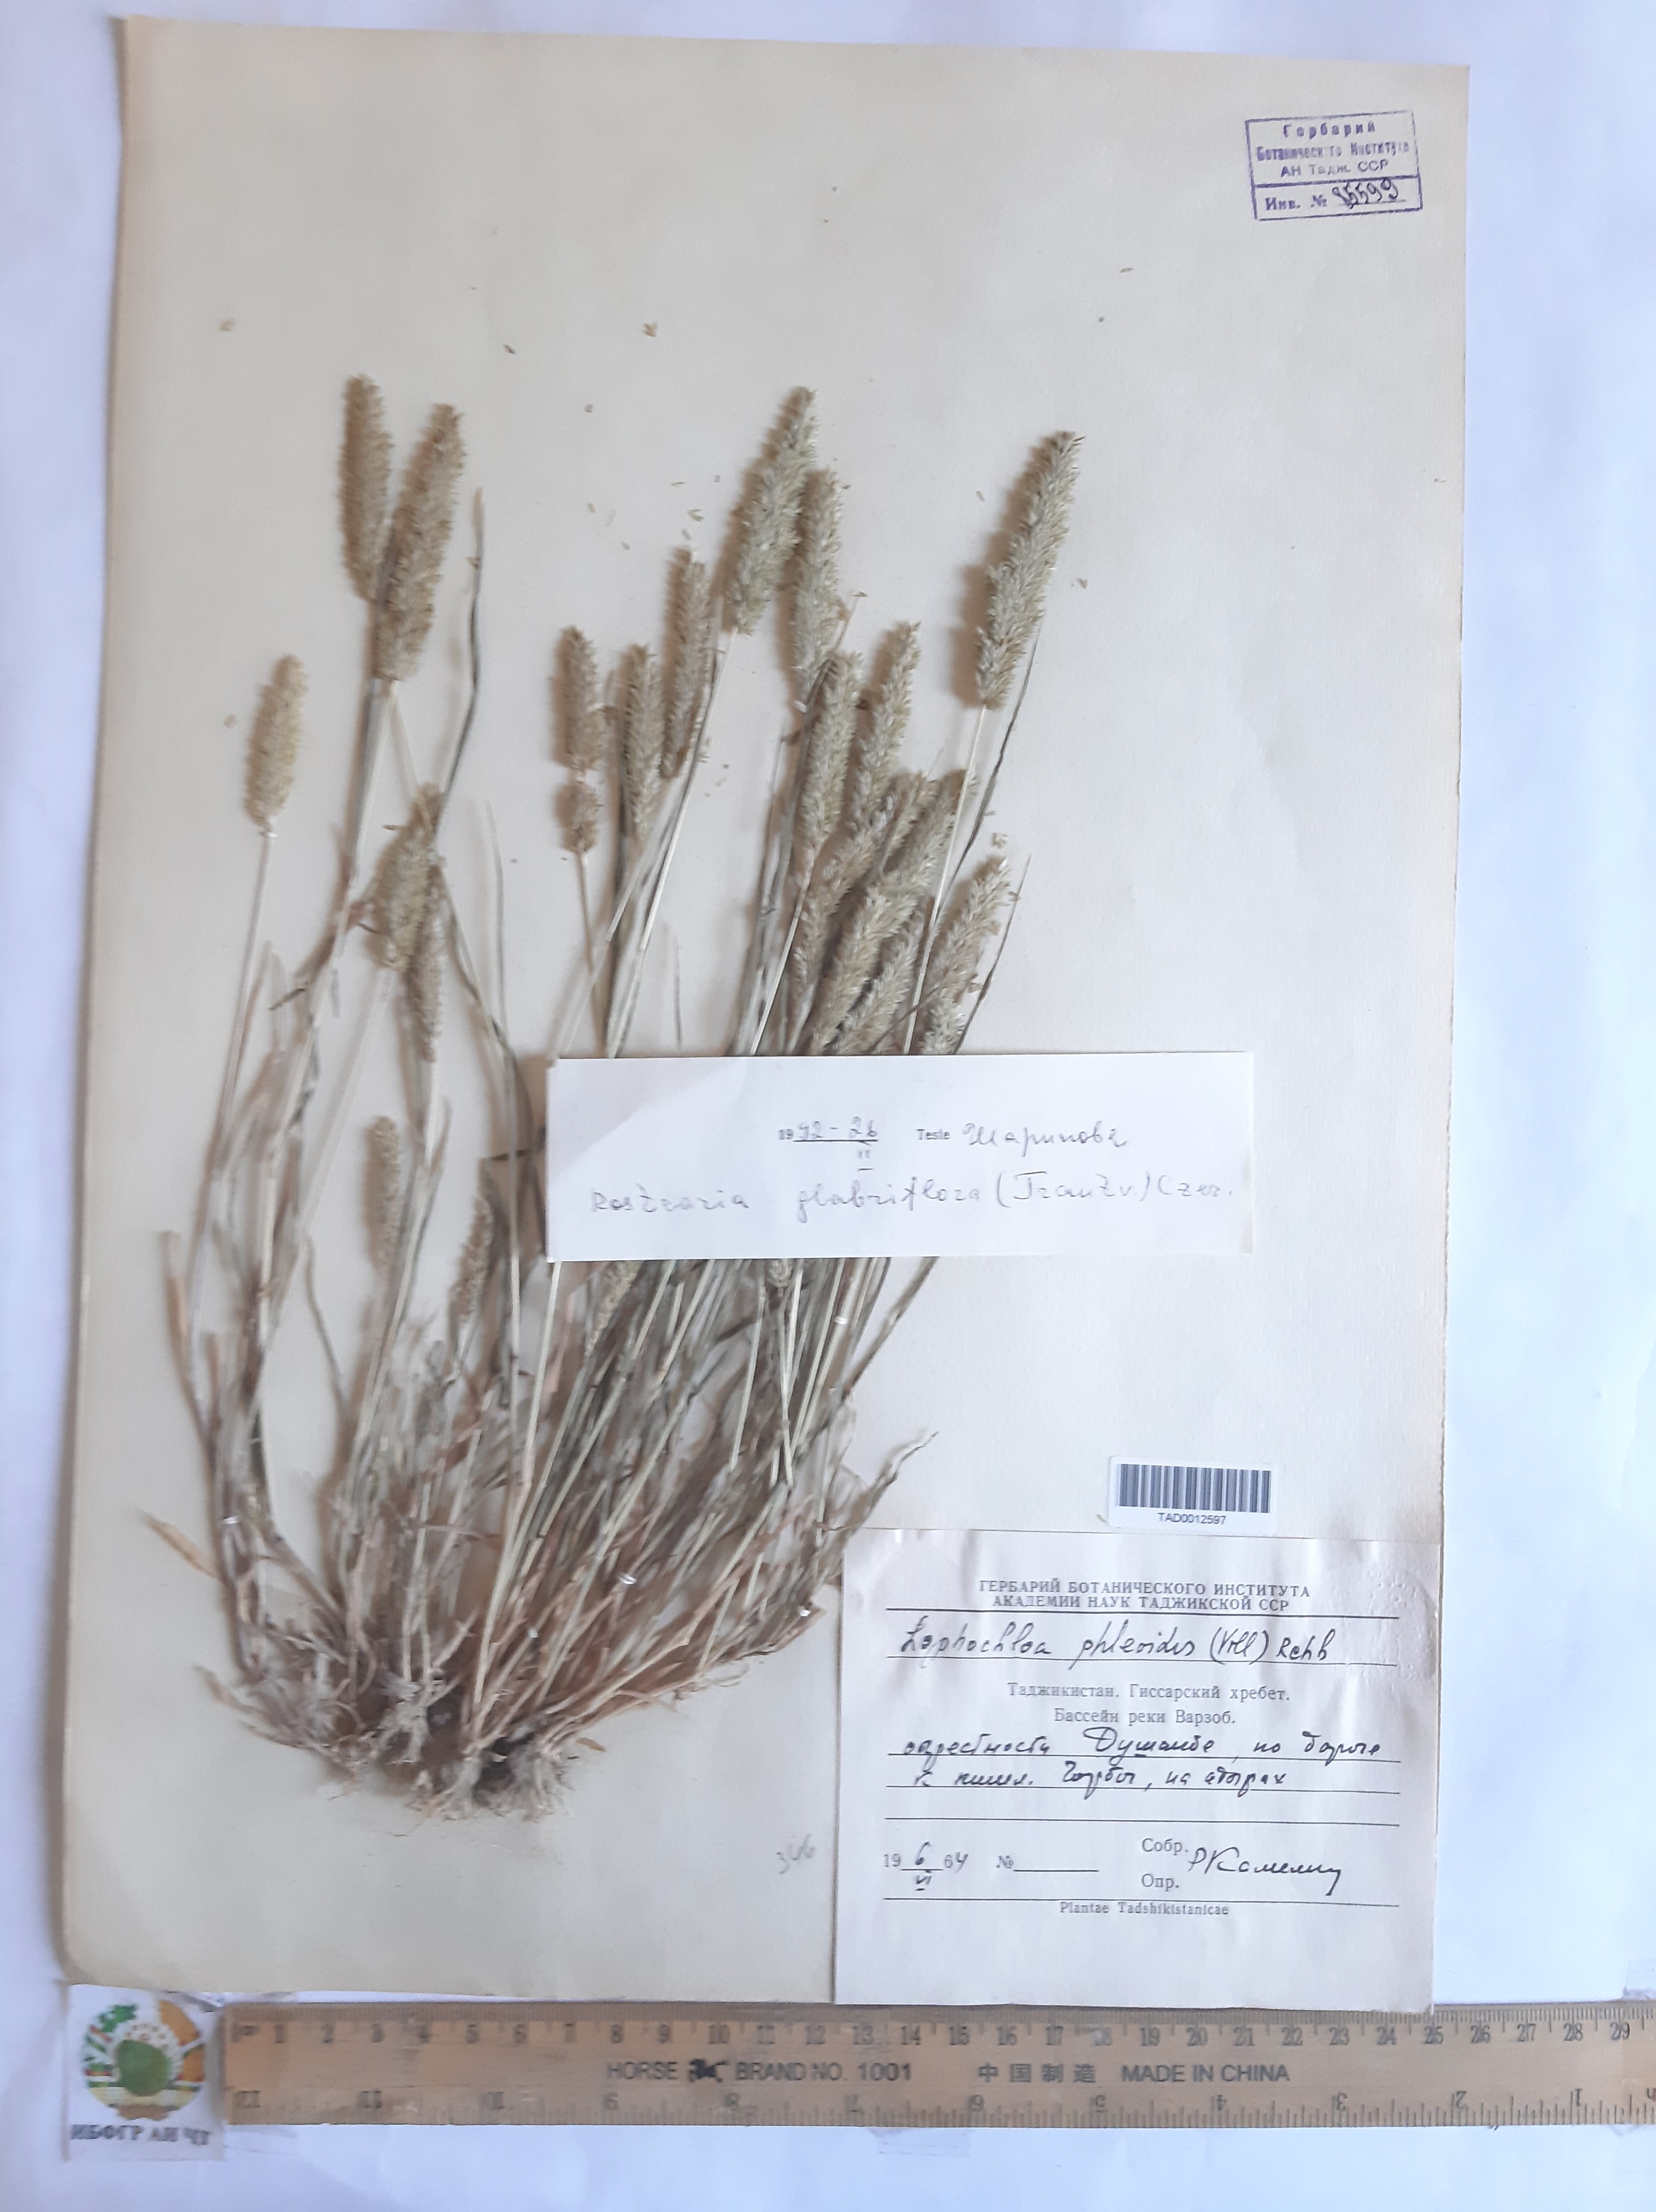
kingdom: Plantae
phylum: Tracheophyta
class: Liliopsida
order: Poales
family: Poaceae
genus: Rostraria
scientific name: Rostraria cristata
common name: Mediterranean hair-grass
